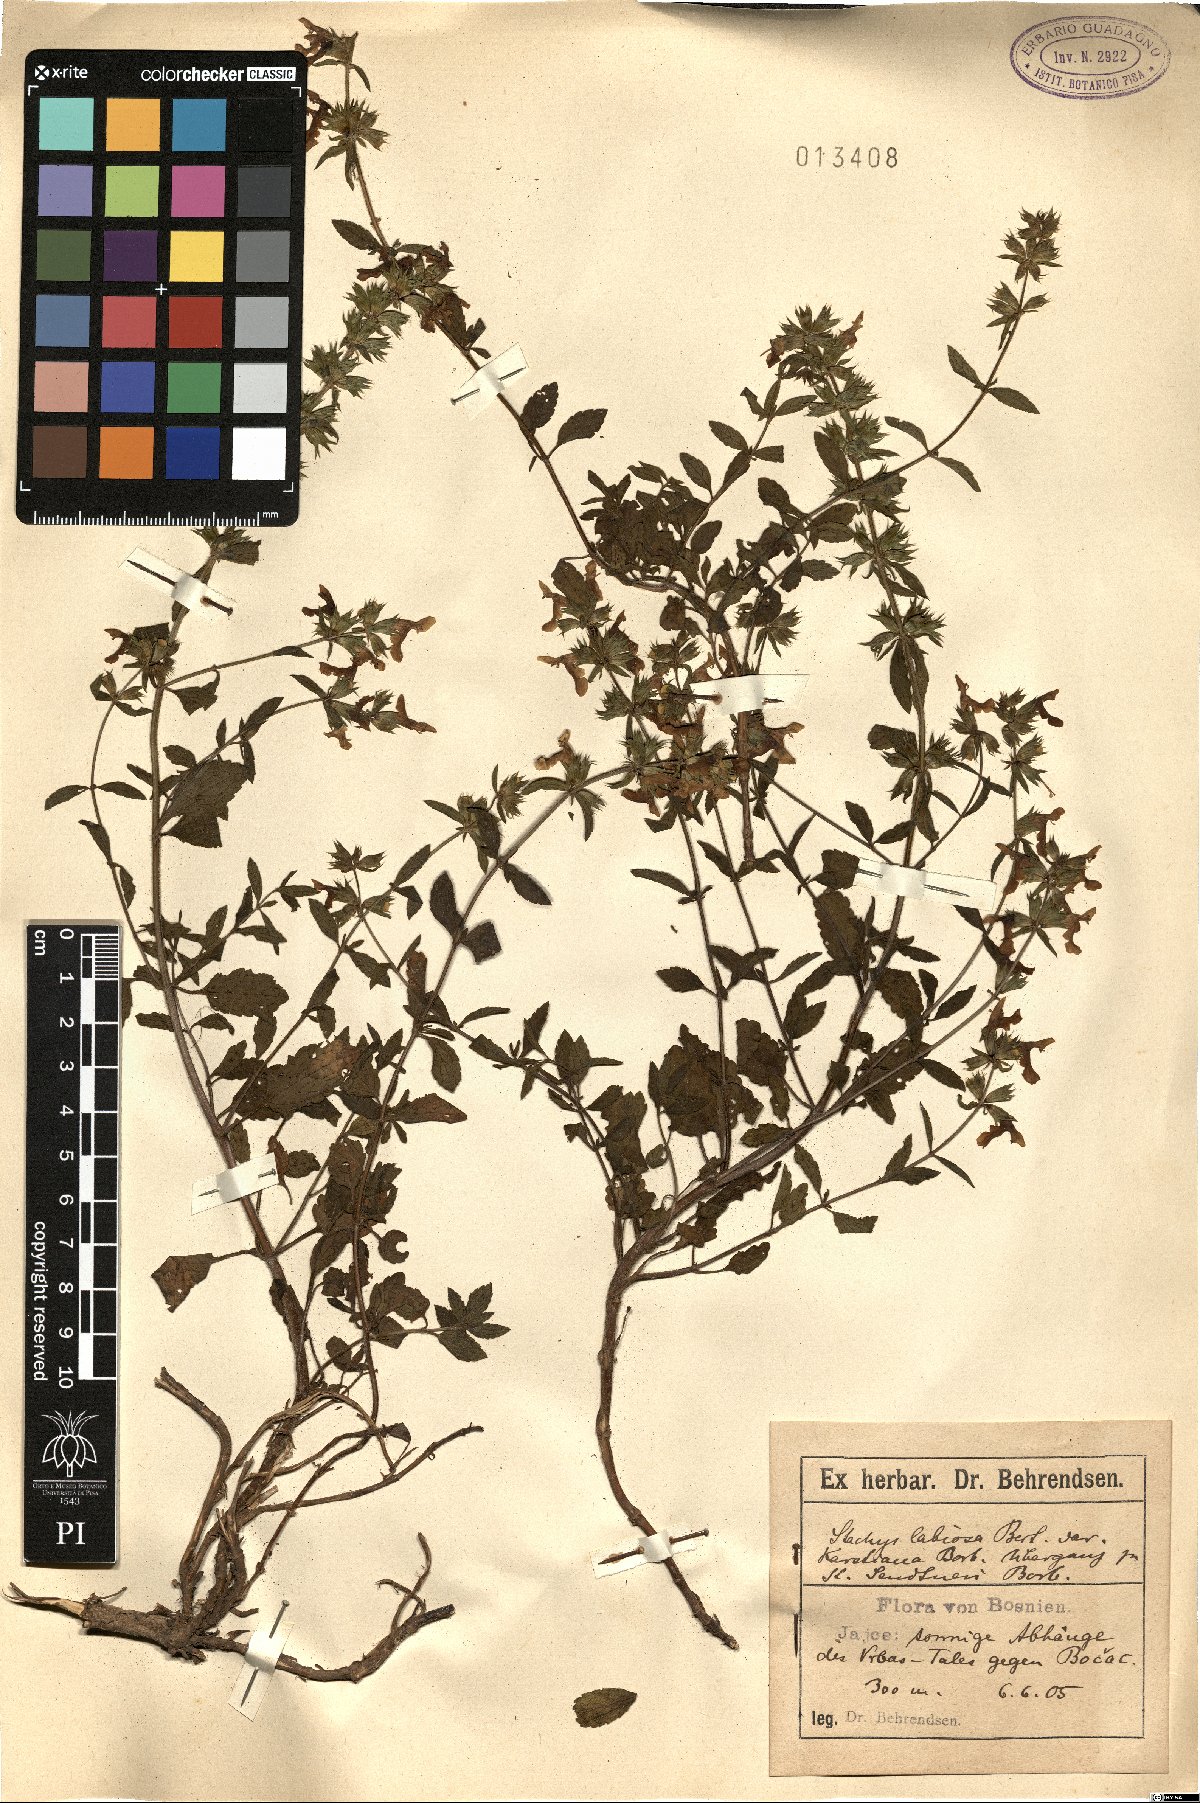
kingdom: Plantae
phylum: Tracheophyta
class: Magnoliopsida
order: Lamiales
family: Lamiaceae
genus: Stachys
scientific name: Stachys recta
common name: Perennial yellow-woundwort
